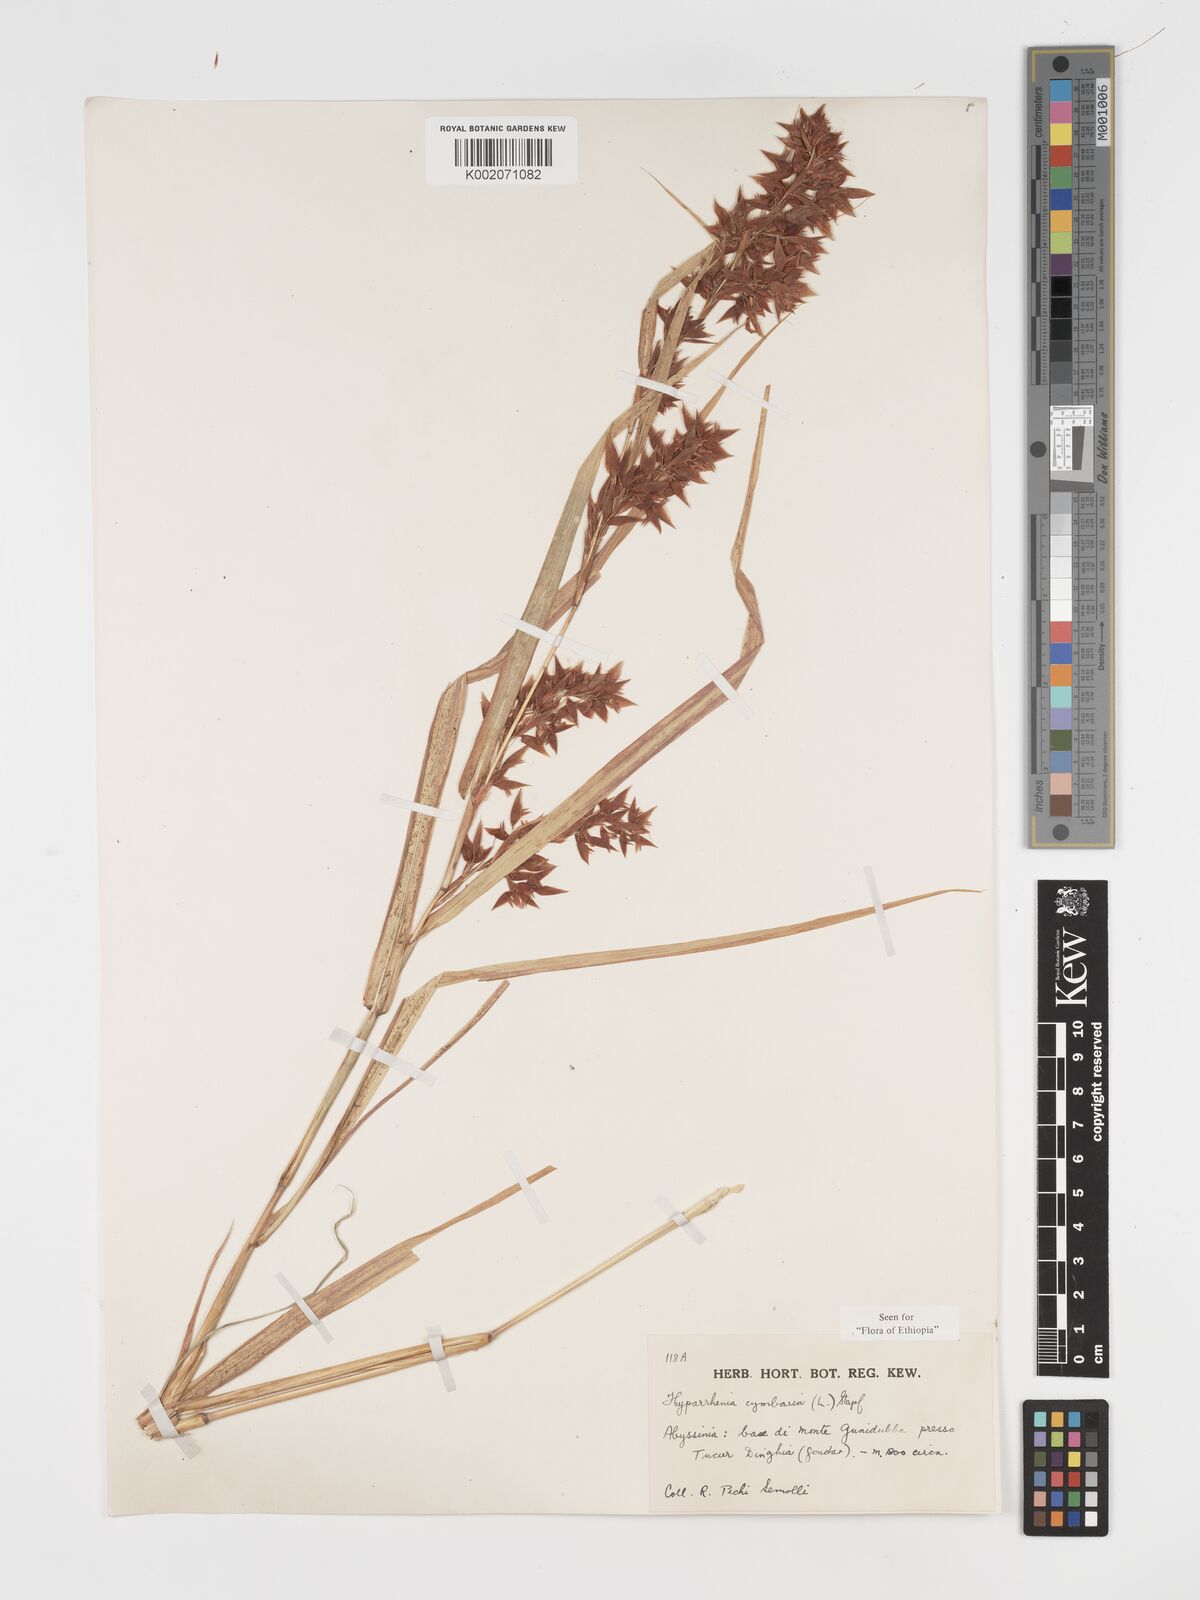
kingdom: Plantae
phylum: Tracheophyta
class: Liliopsida
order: Poales
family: Poaceae
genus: Hyparrhenia
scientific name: Hyparrhenia cymbaria
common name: Boat thatching grass
